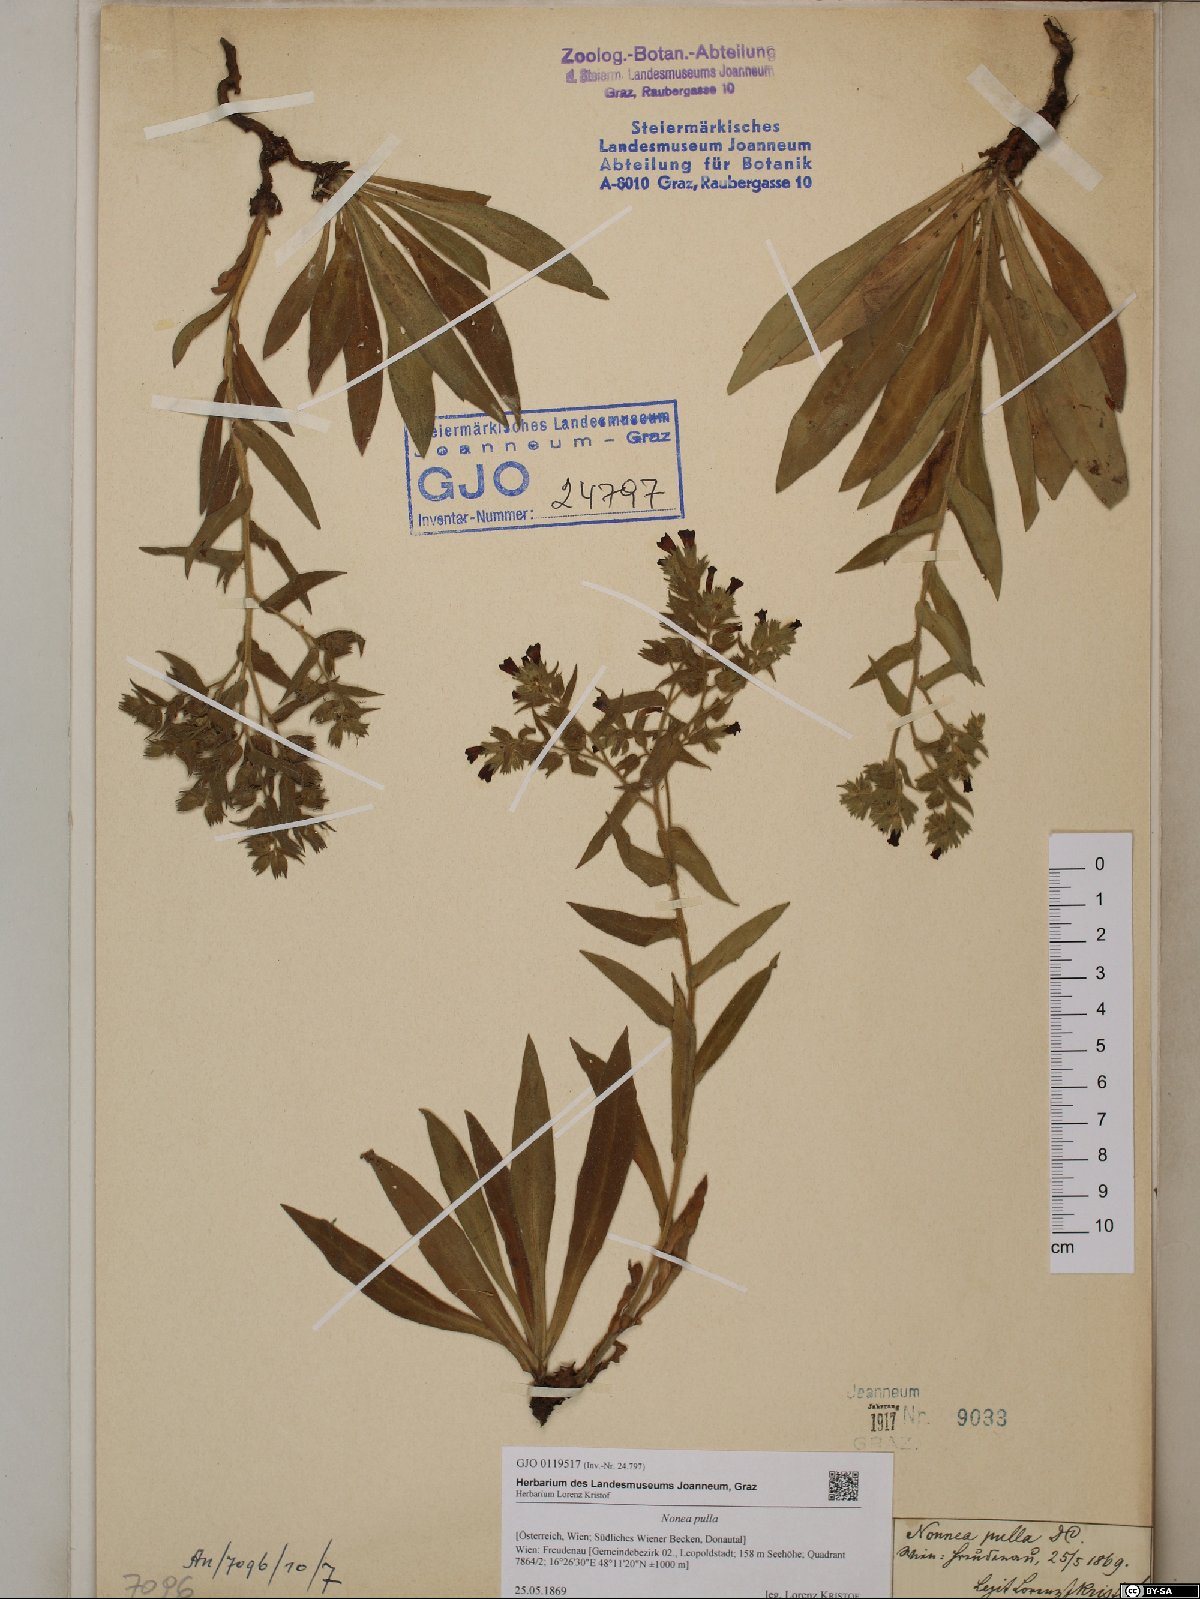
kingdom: Plantae
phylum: Tracheophyta
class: Magnoliopsida
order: Boraginales
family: Boraginaceae
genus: Nonea
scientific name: Nonea pulla
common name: Brown nonea
